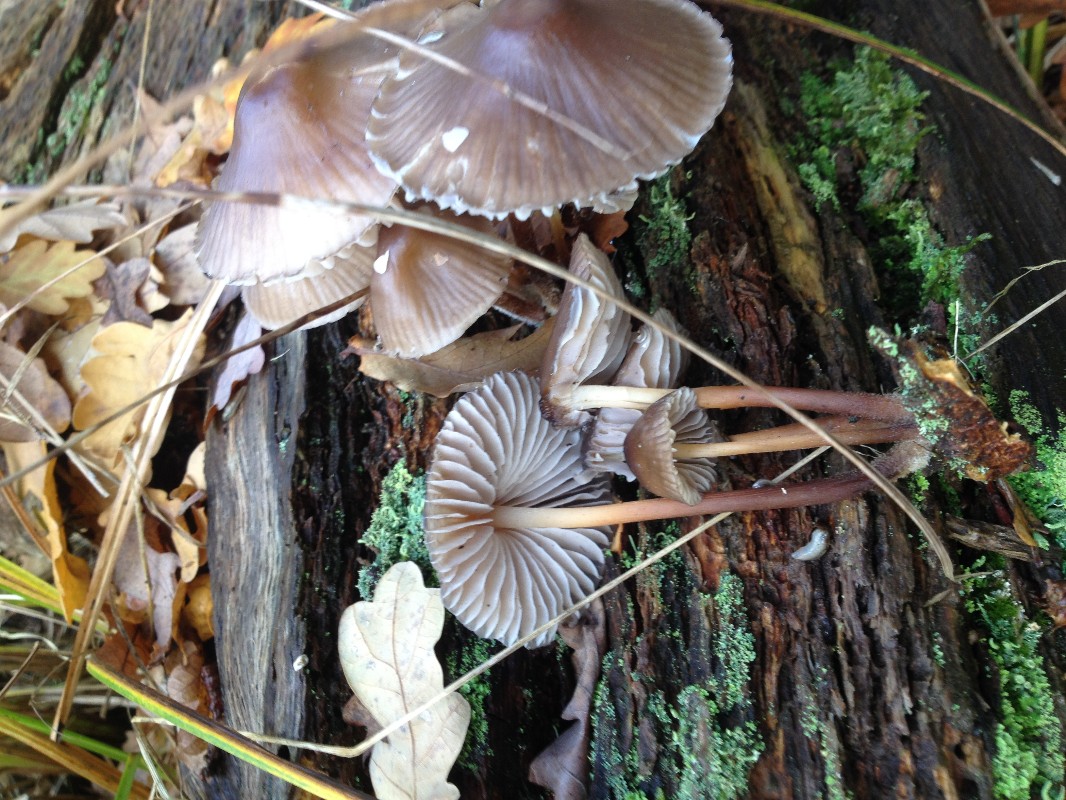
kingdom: Fungi
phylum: Basidiomycota
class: Agaricomycetes
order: Agaricales
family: Mycenaceae
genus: Mycena
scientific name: Mycena inclinata
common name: nikkende huesvamp
